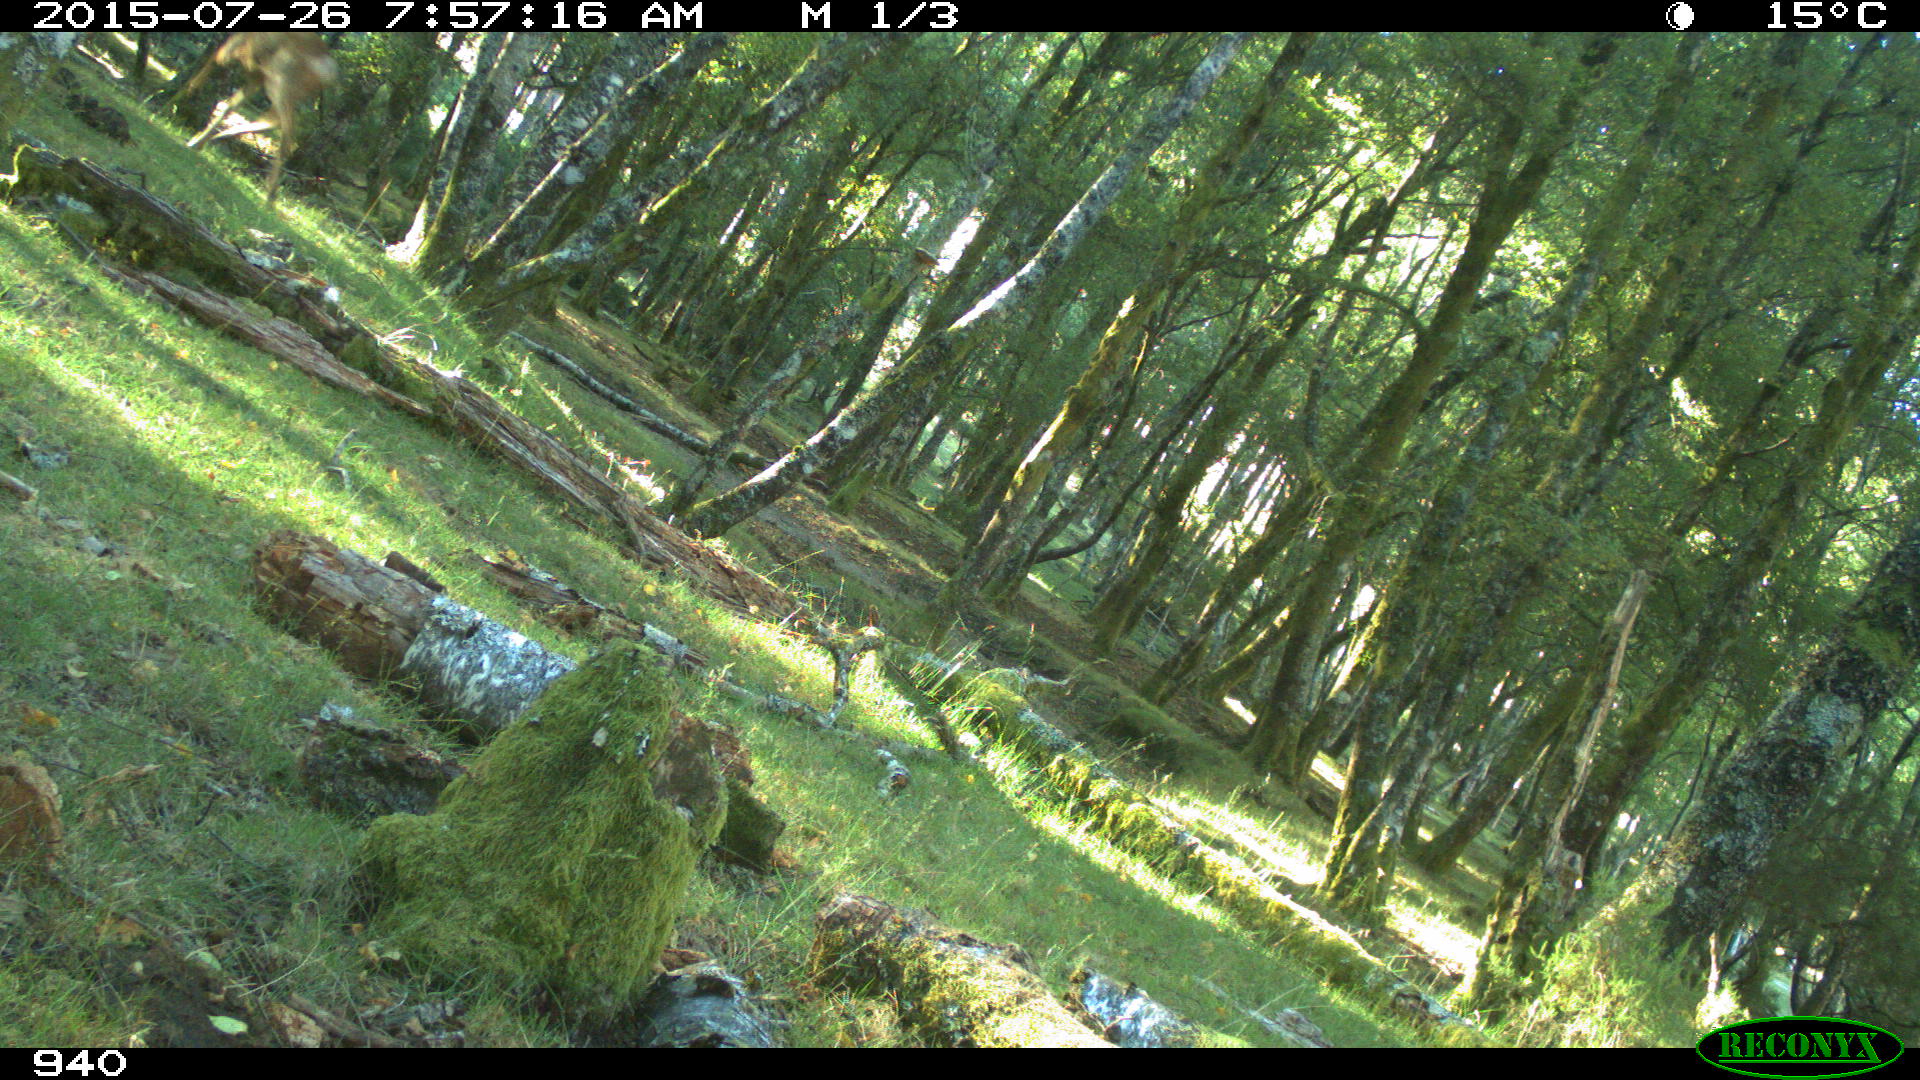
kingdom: Animalia
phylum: Chordata
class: Mammalia
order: Artiodactyla
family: Cervidae
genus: Capreolus
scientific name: Capreolus capreolus
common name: Western roe deer
